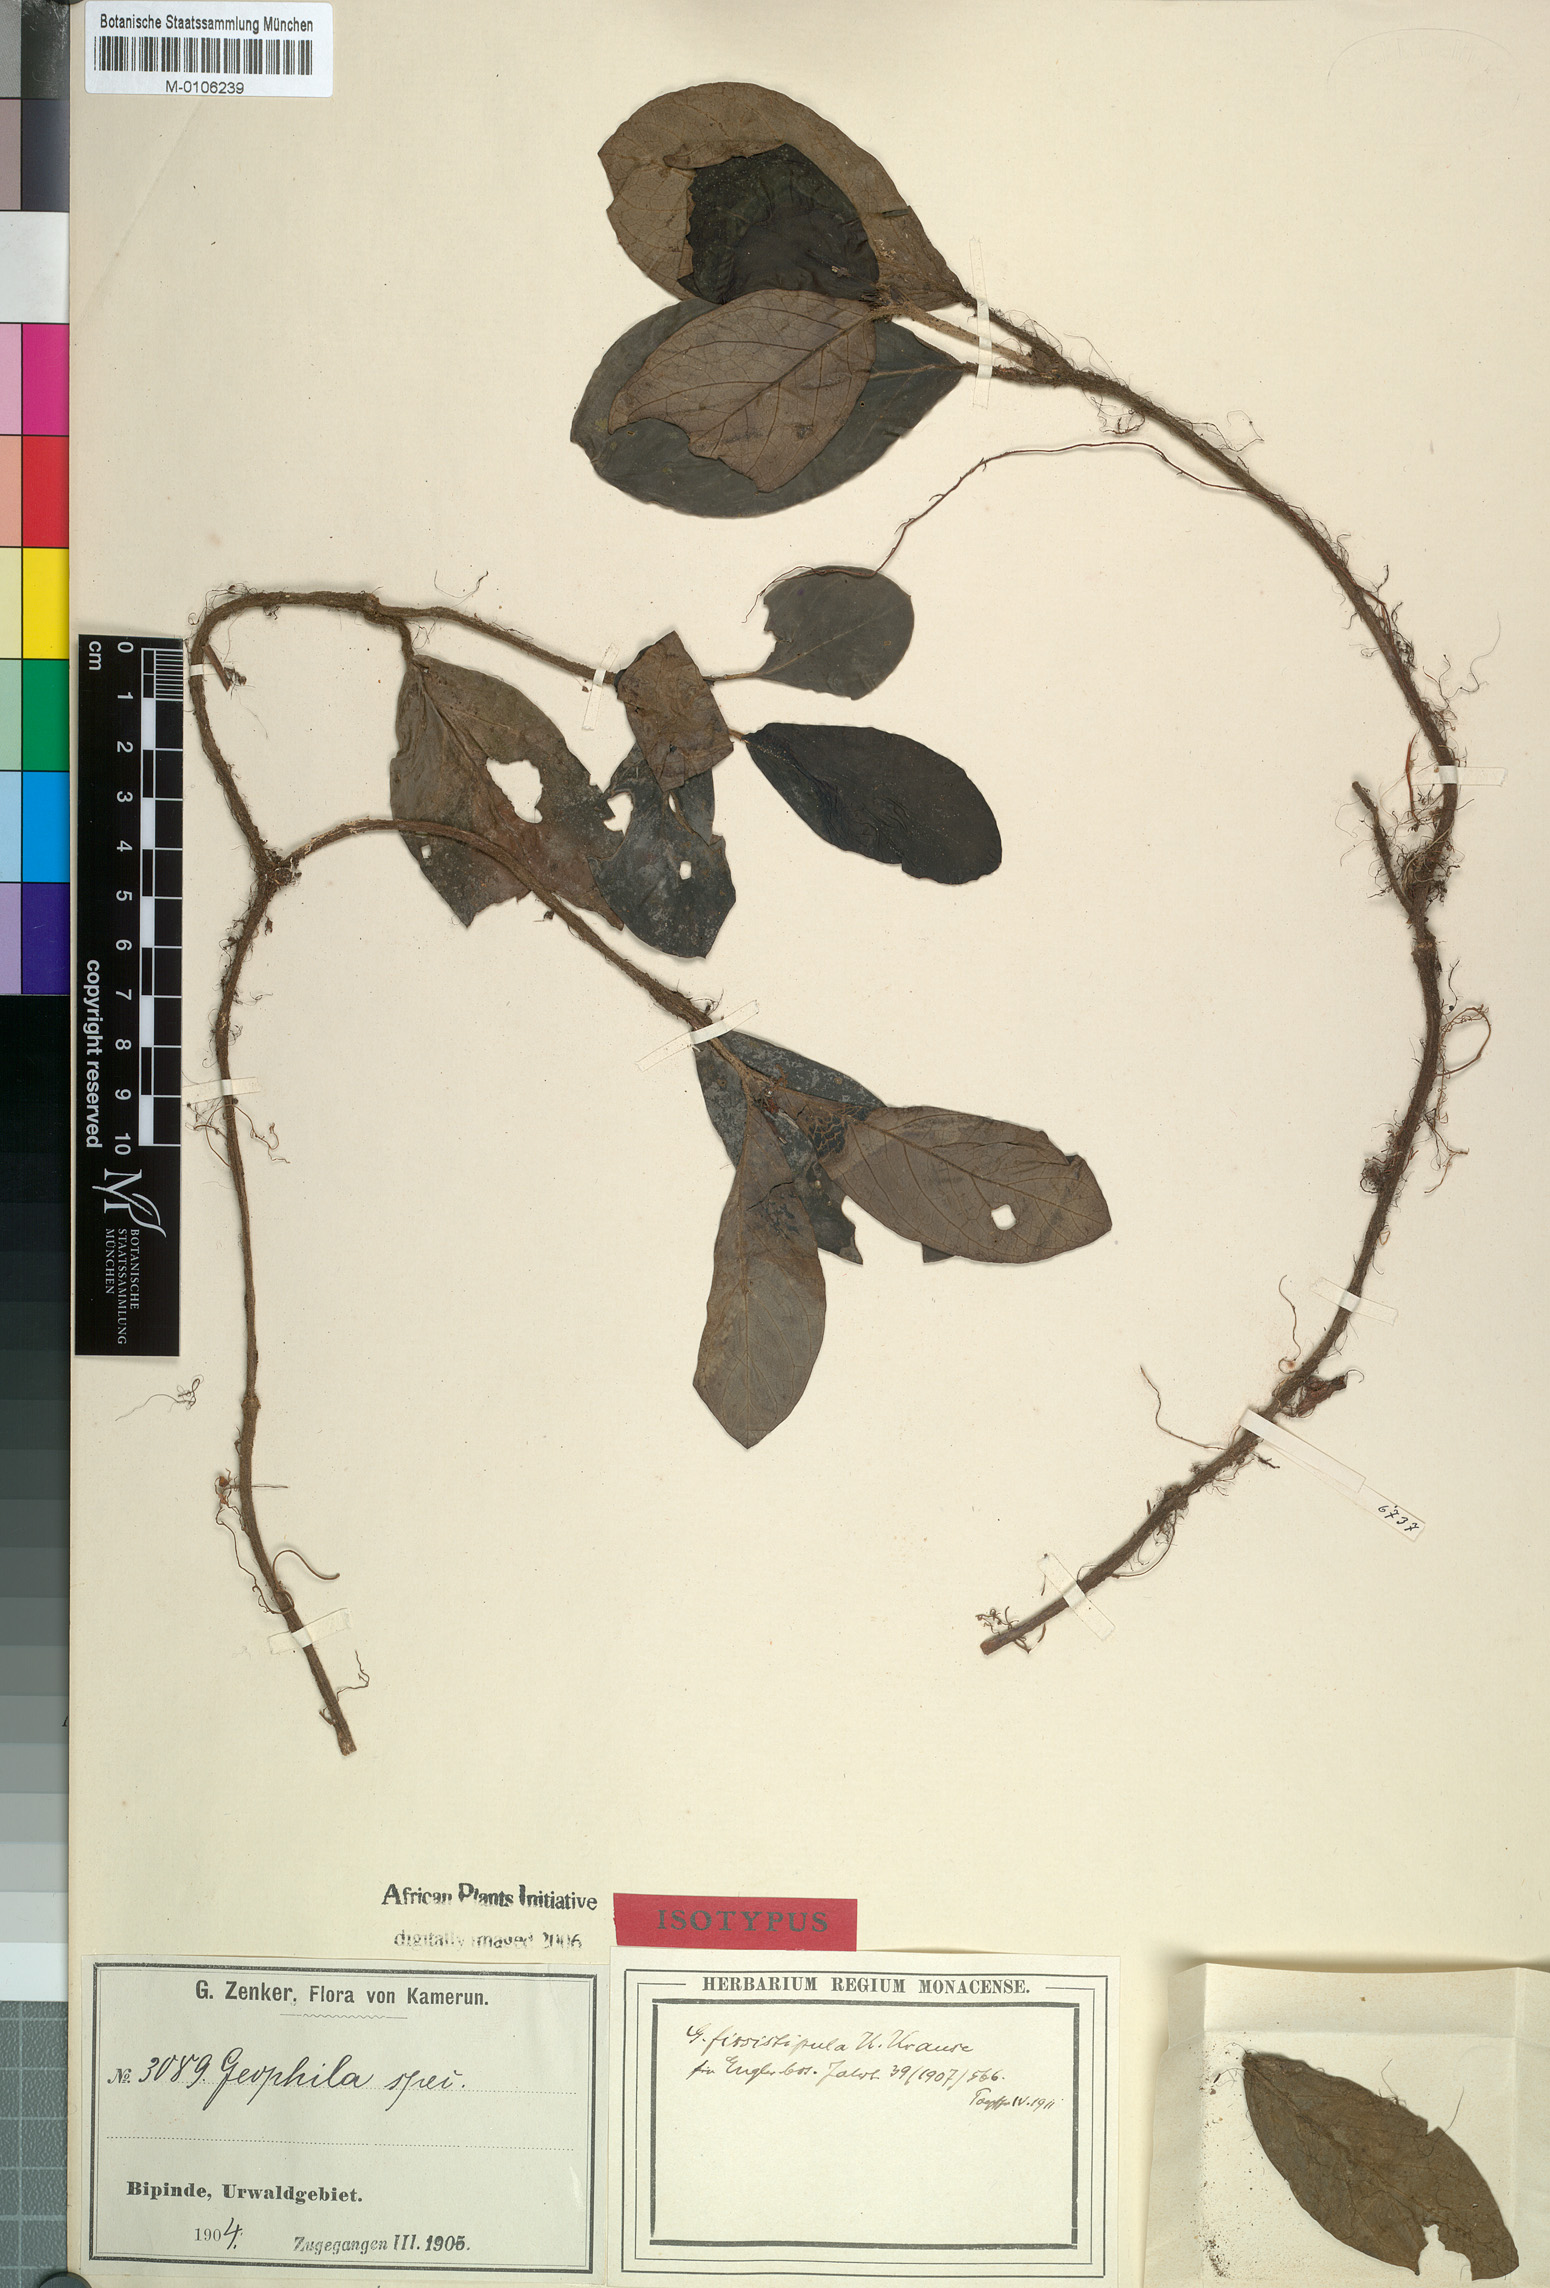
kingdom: Plantae
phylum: Tracheophyta
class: Magnoliopsida
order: Gentianales
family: Rubiaceae
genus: Hymenocoleus
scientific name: Hymenocoleus neurodictyon
